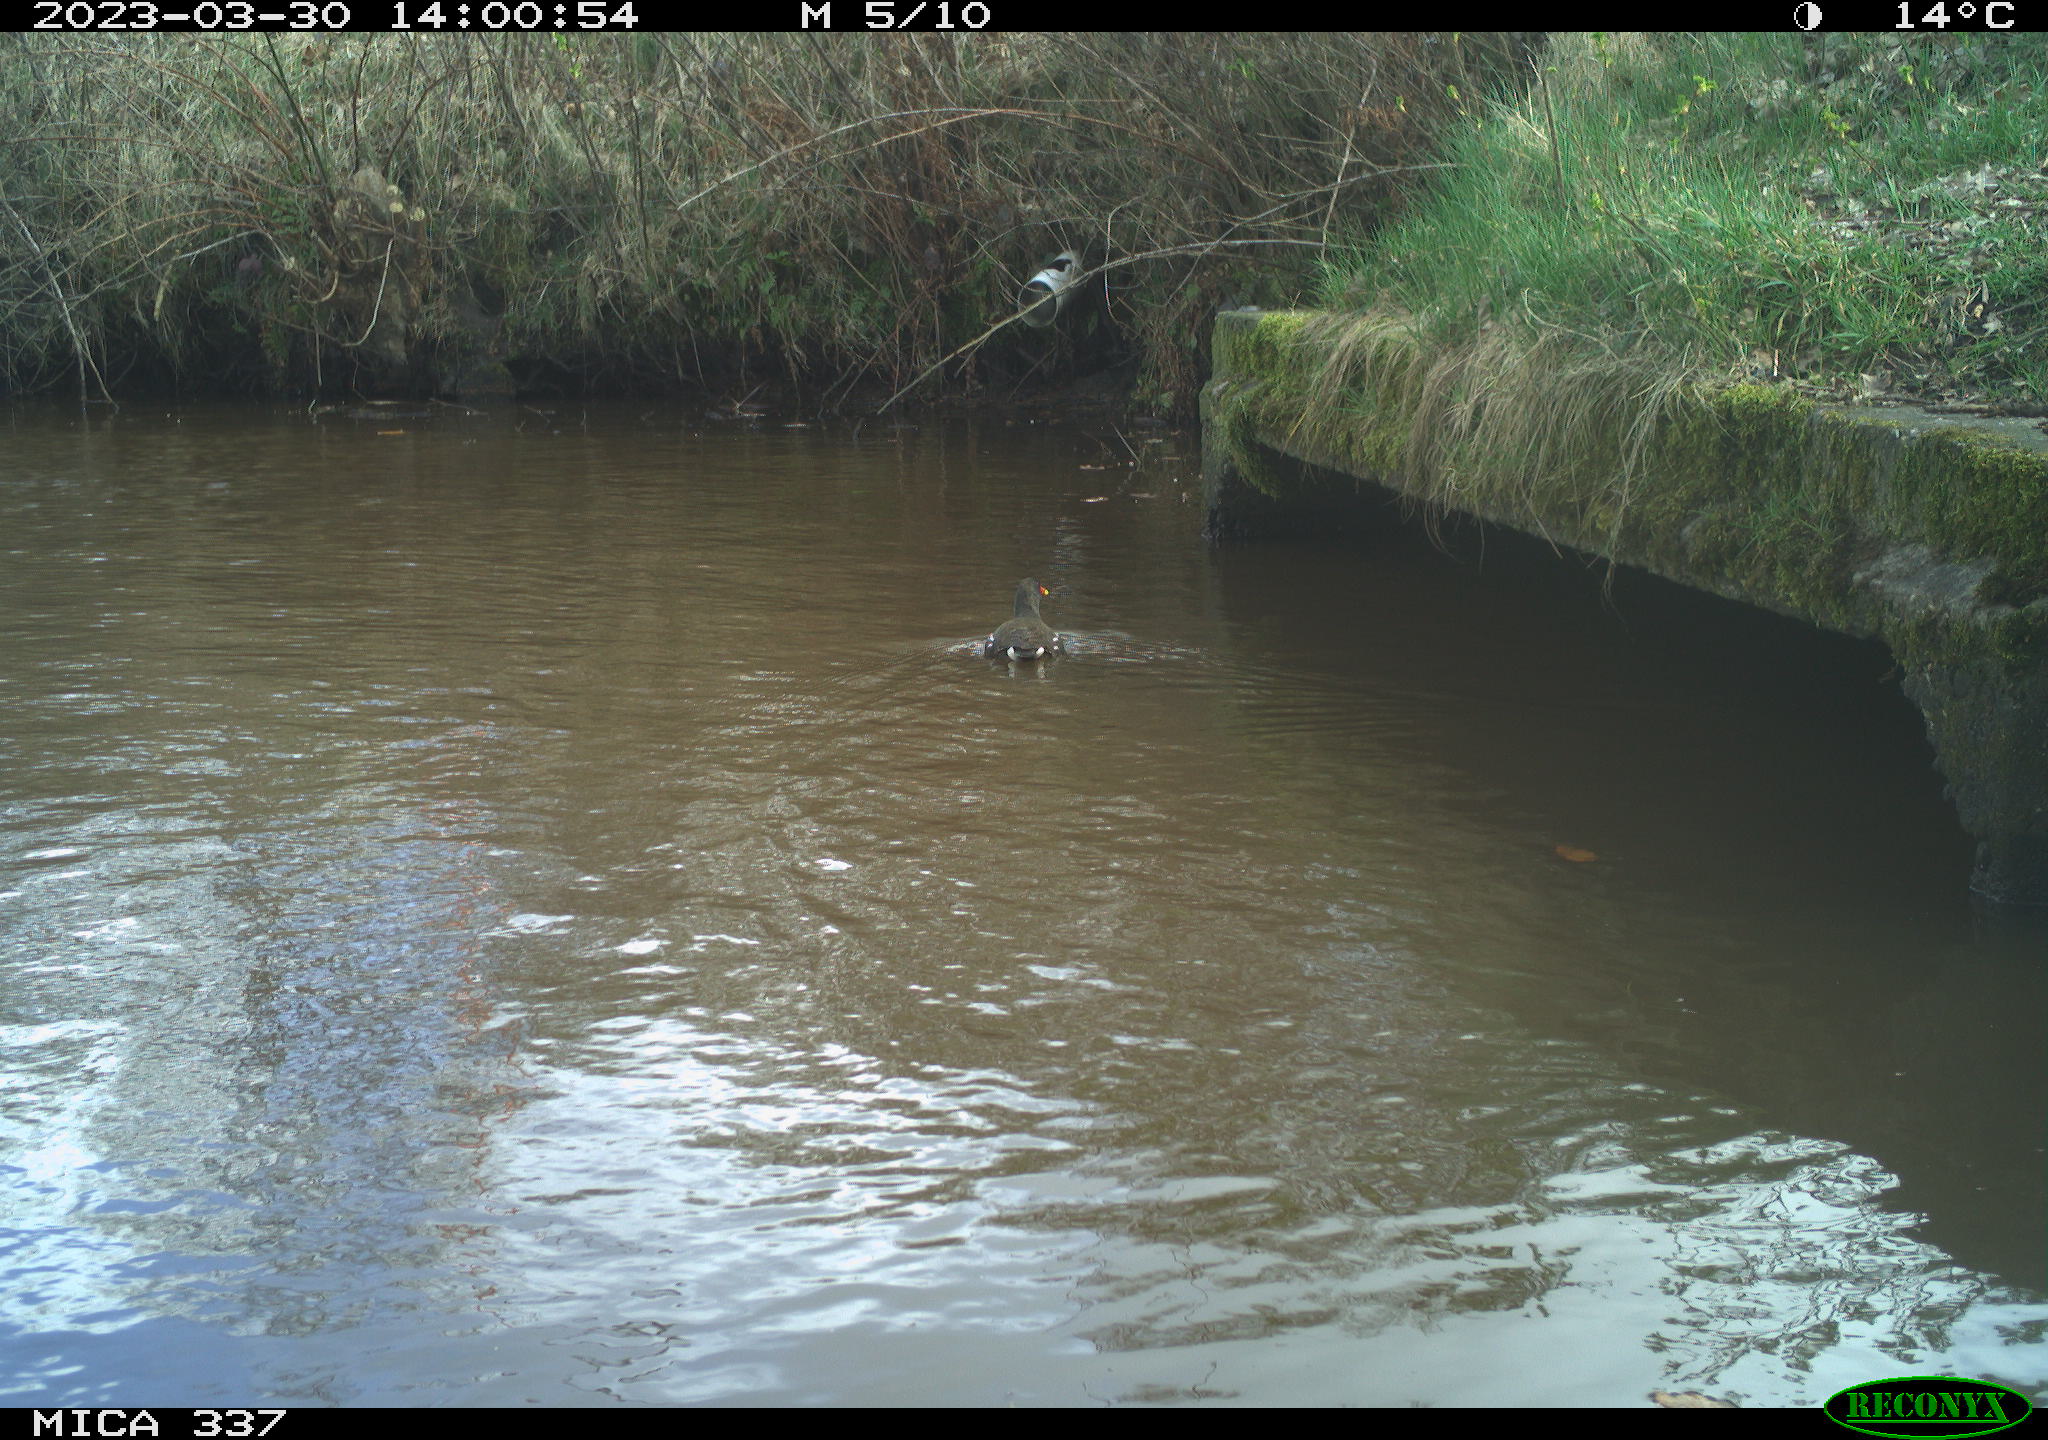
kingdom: Animalia
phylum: Chordata
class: Aves
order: Gruiformes
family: Rallidae
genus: Gallinula
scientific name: Gallinula chloropus
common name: Common moorhen
